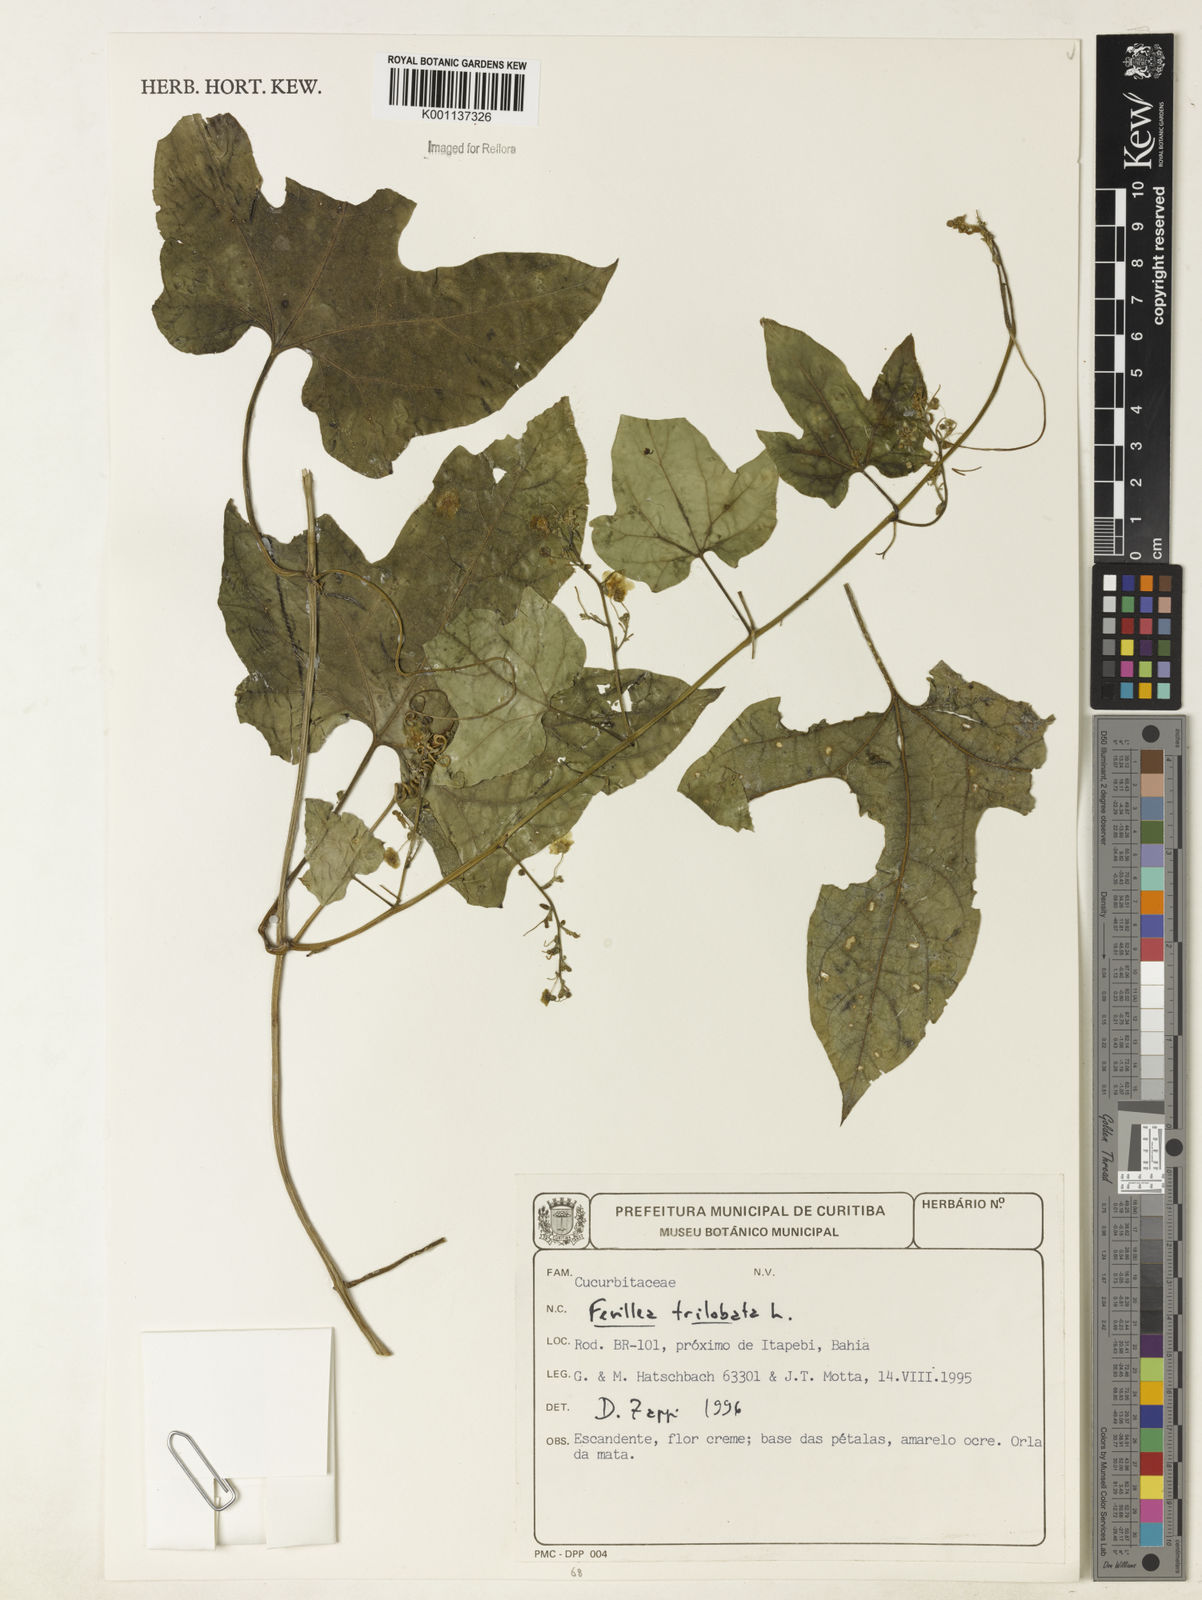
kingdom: Plantae
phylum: Tracheophyta
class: Magnoliopsida
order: Cucurbitales
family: Cucurbitaceae
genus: Fevillea
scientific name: Fevillea trilobata
